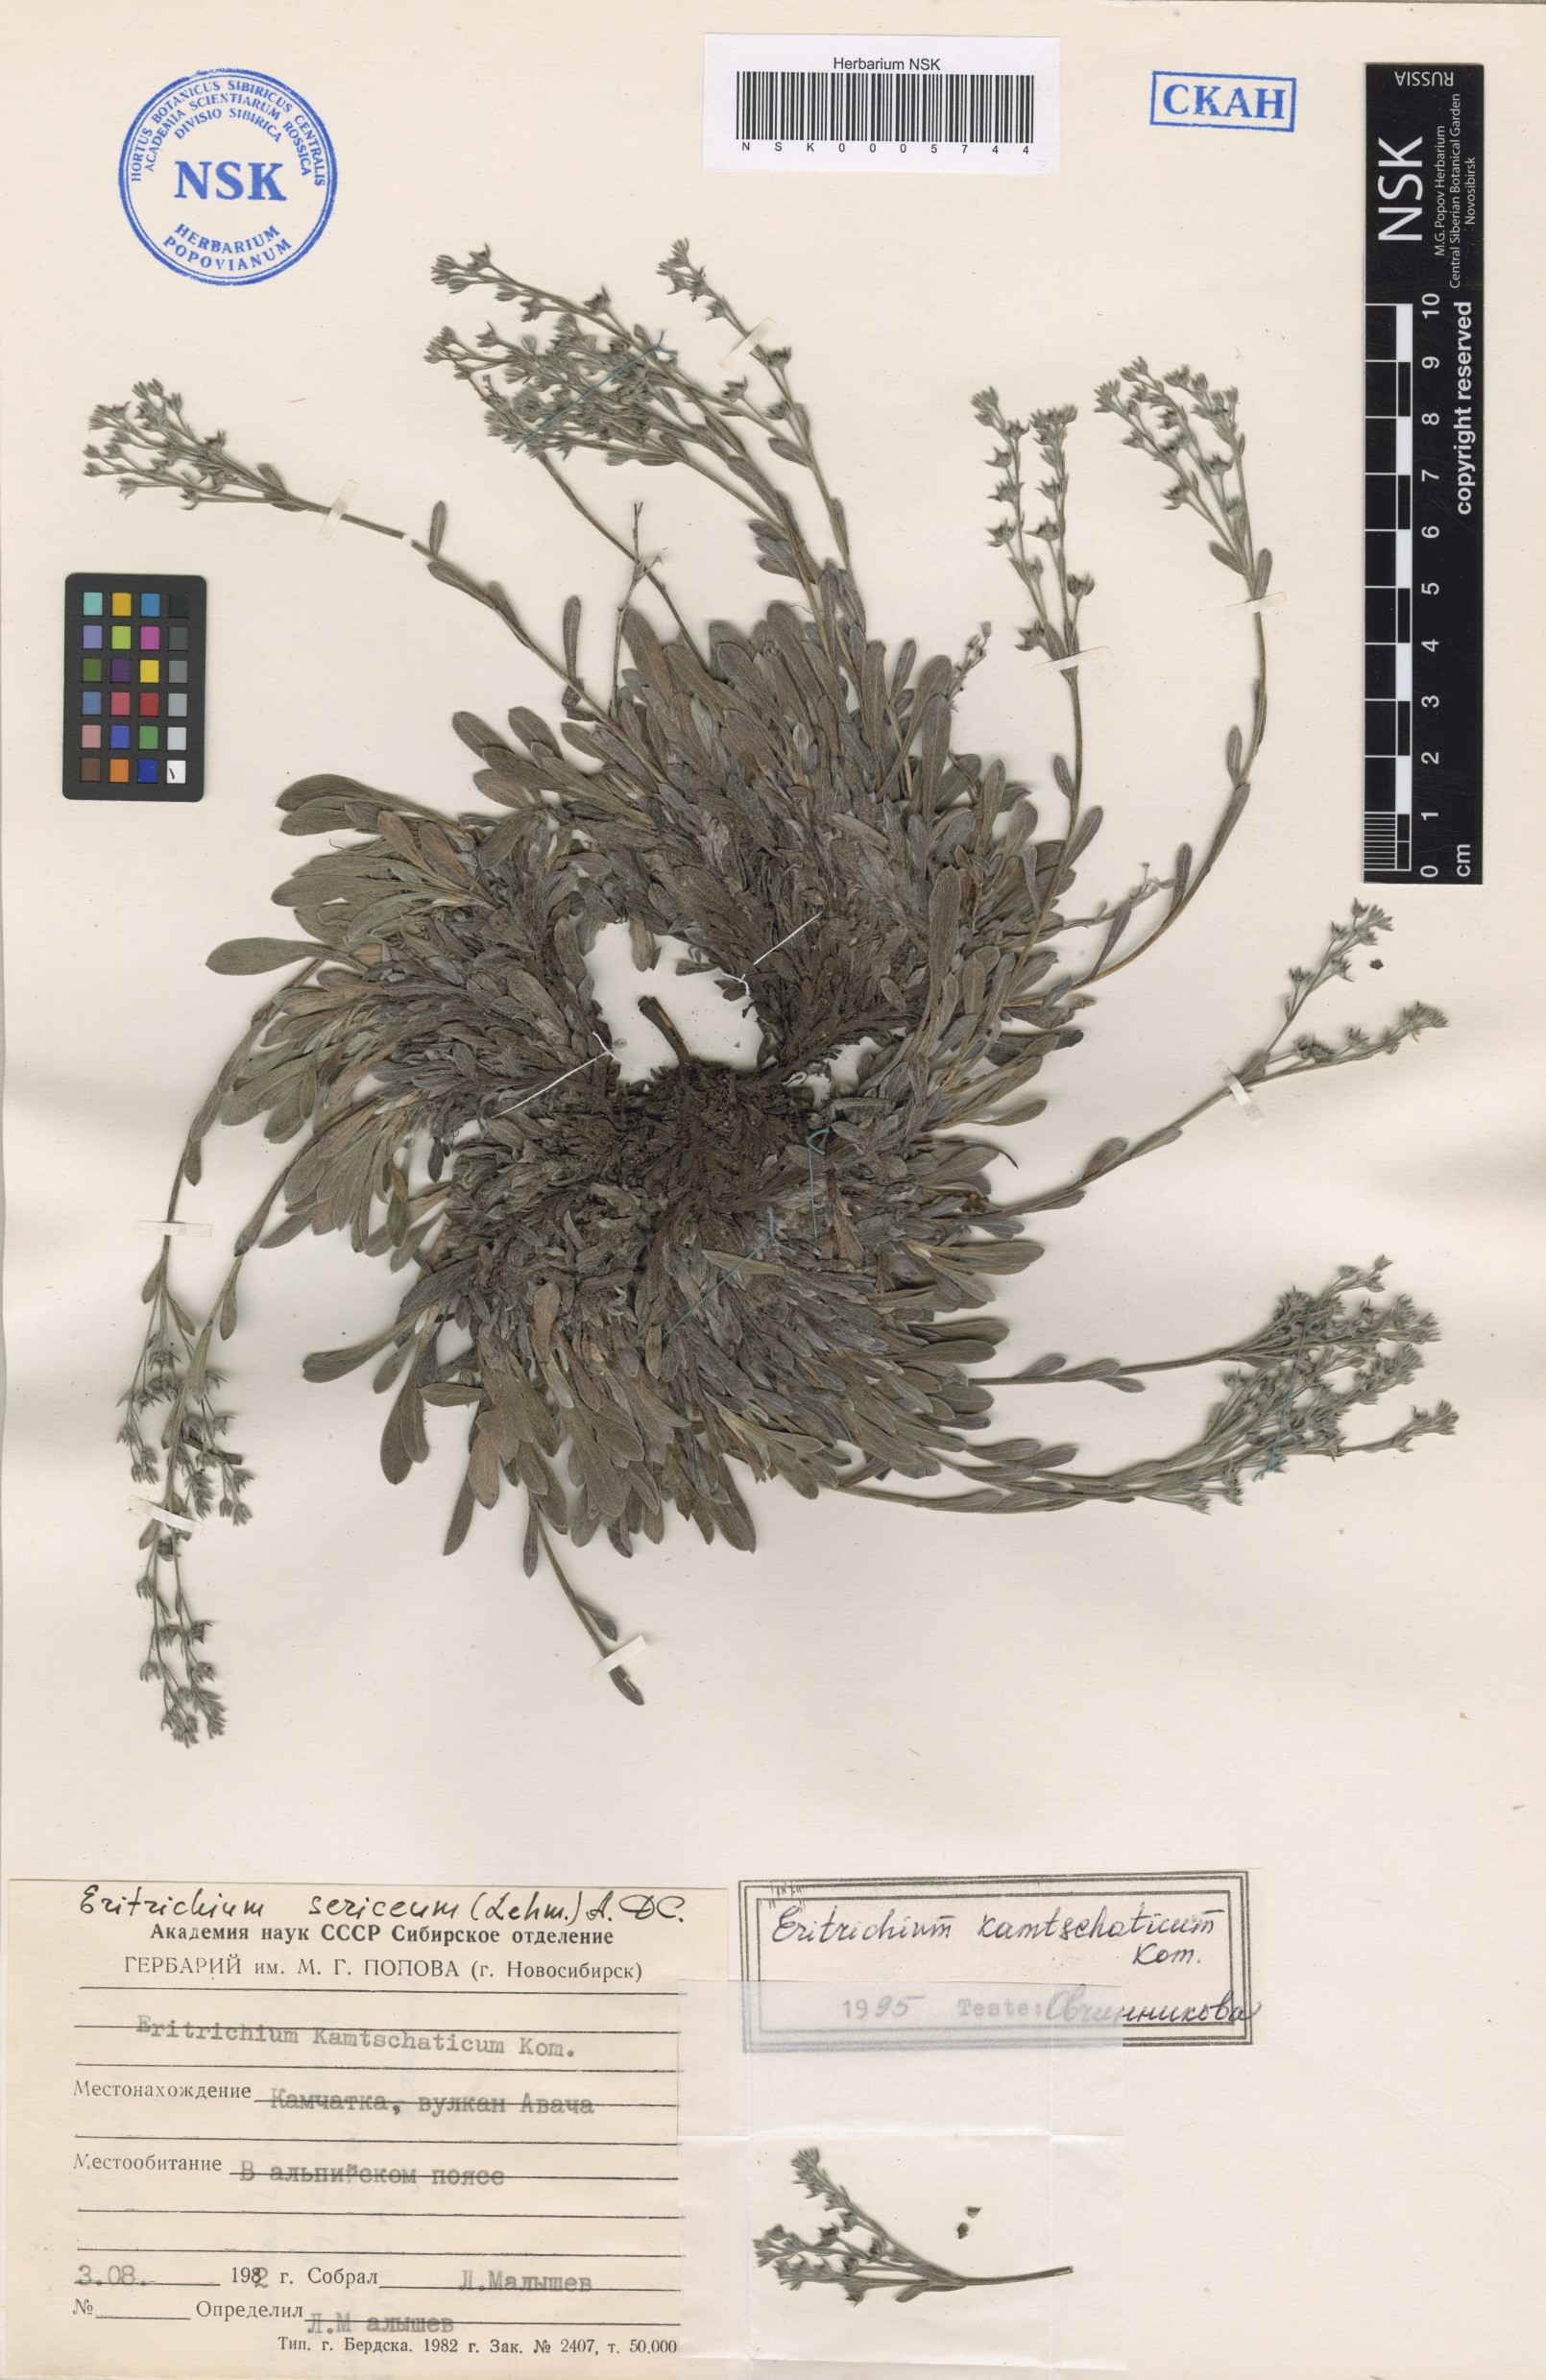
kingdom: Plantae
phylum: Tracheophyta
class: Magnoliopsida
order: Boraginales
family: Boraginaceae
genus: Eritrichium
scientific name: Eritrichium villosum
